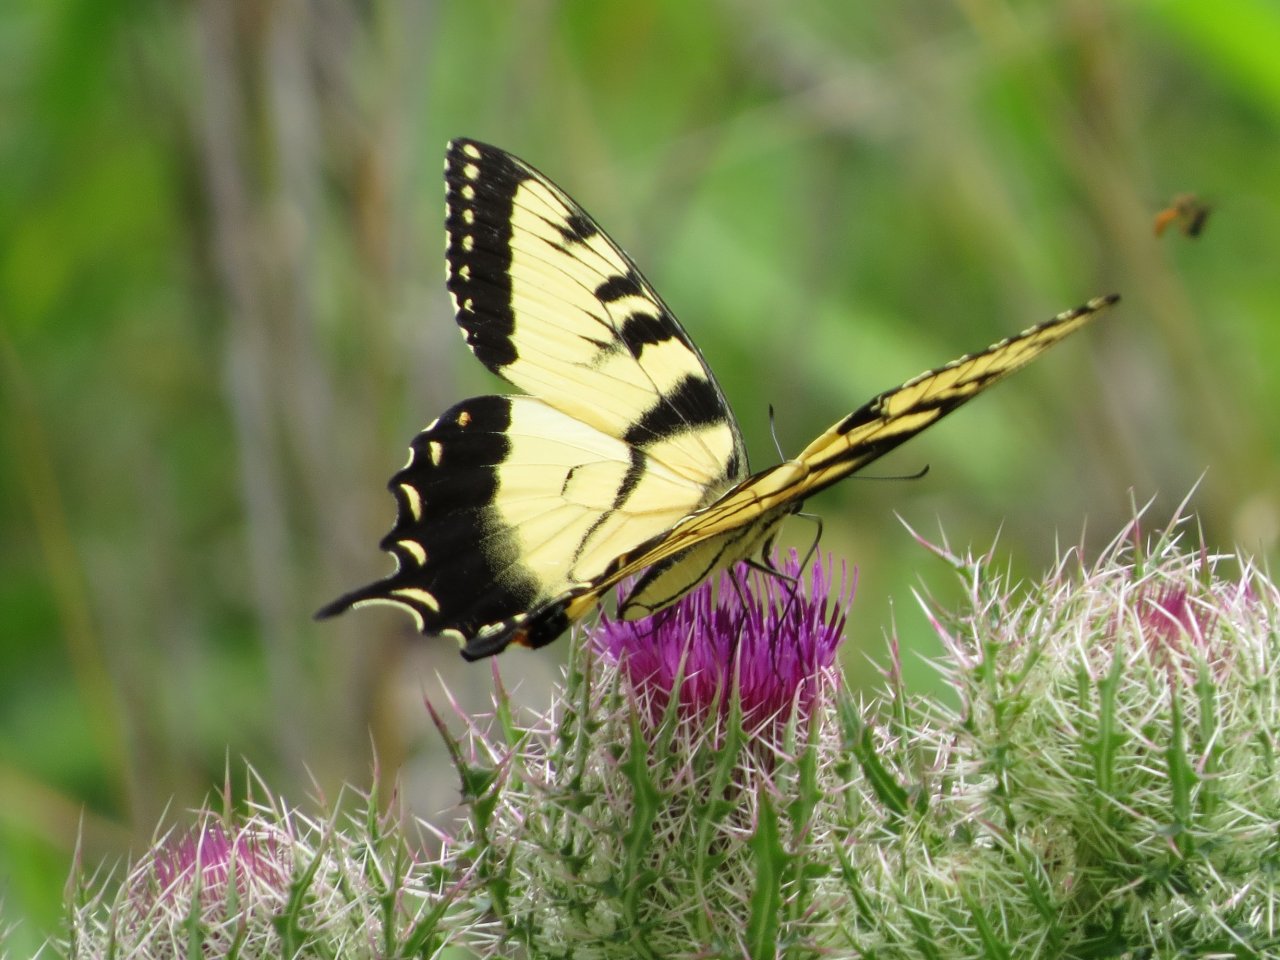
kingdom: Animalia
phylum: Arthropoda
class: Insecta
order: Lepidoptera
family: Papilionidae
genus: Pterourus
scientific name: Pterourus glaucus
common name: Eastern Tiger Swallowtail
